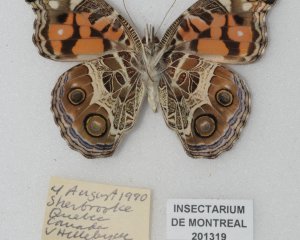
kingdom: Animalia
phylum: Arthropoda
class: Insecta
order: Lepidoptera
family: Nymphalidae
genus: Vanessa
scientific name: Vanessa virginiensis
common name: American Lady
